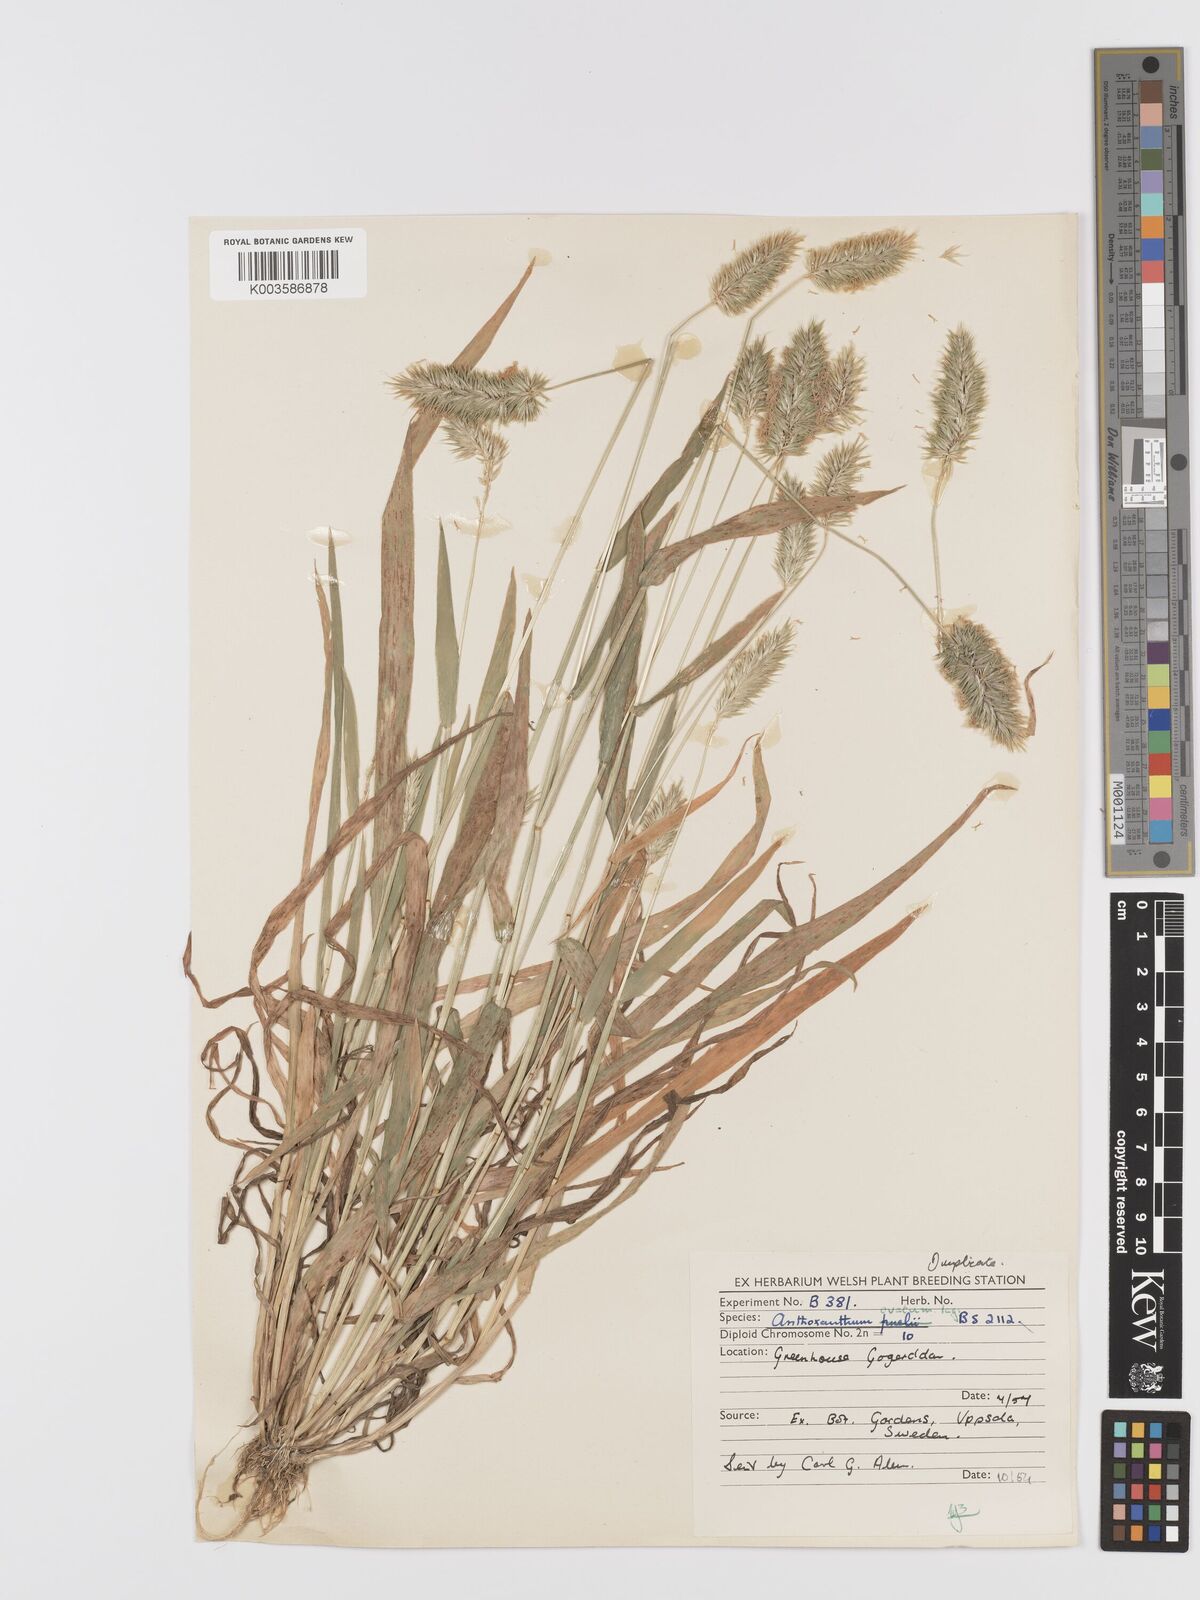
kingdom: Plantae
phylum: Tracheophyta
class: Liliopsida
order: Poales
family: Poaceae
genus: Anthoxanthum
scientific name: Anthoxanthum ovatum
